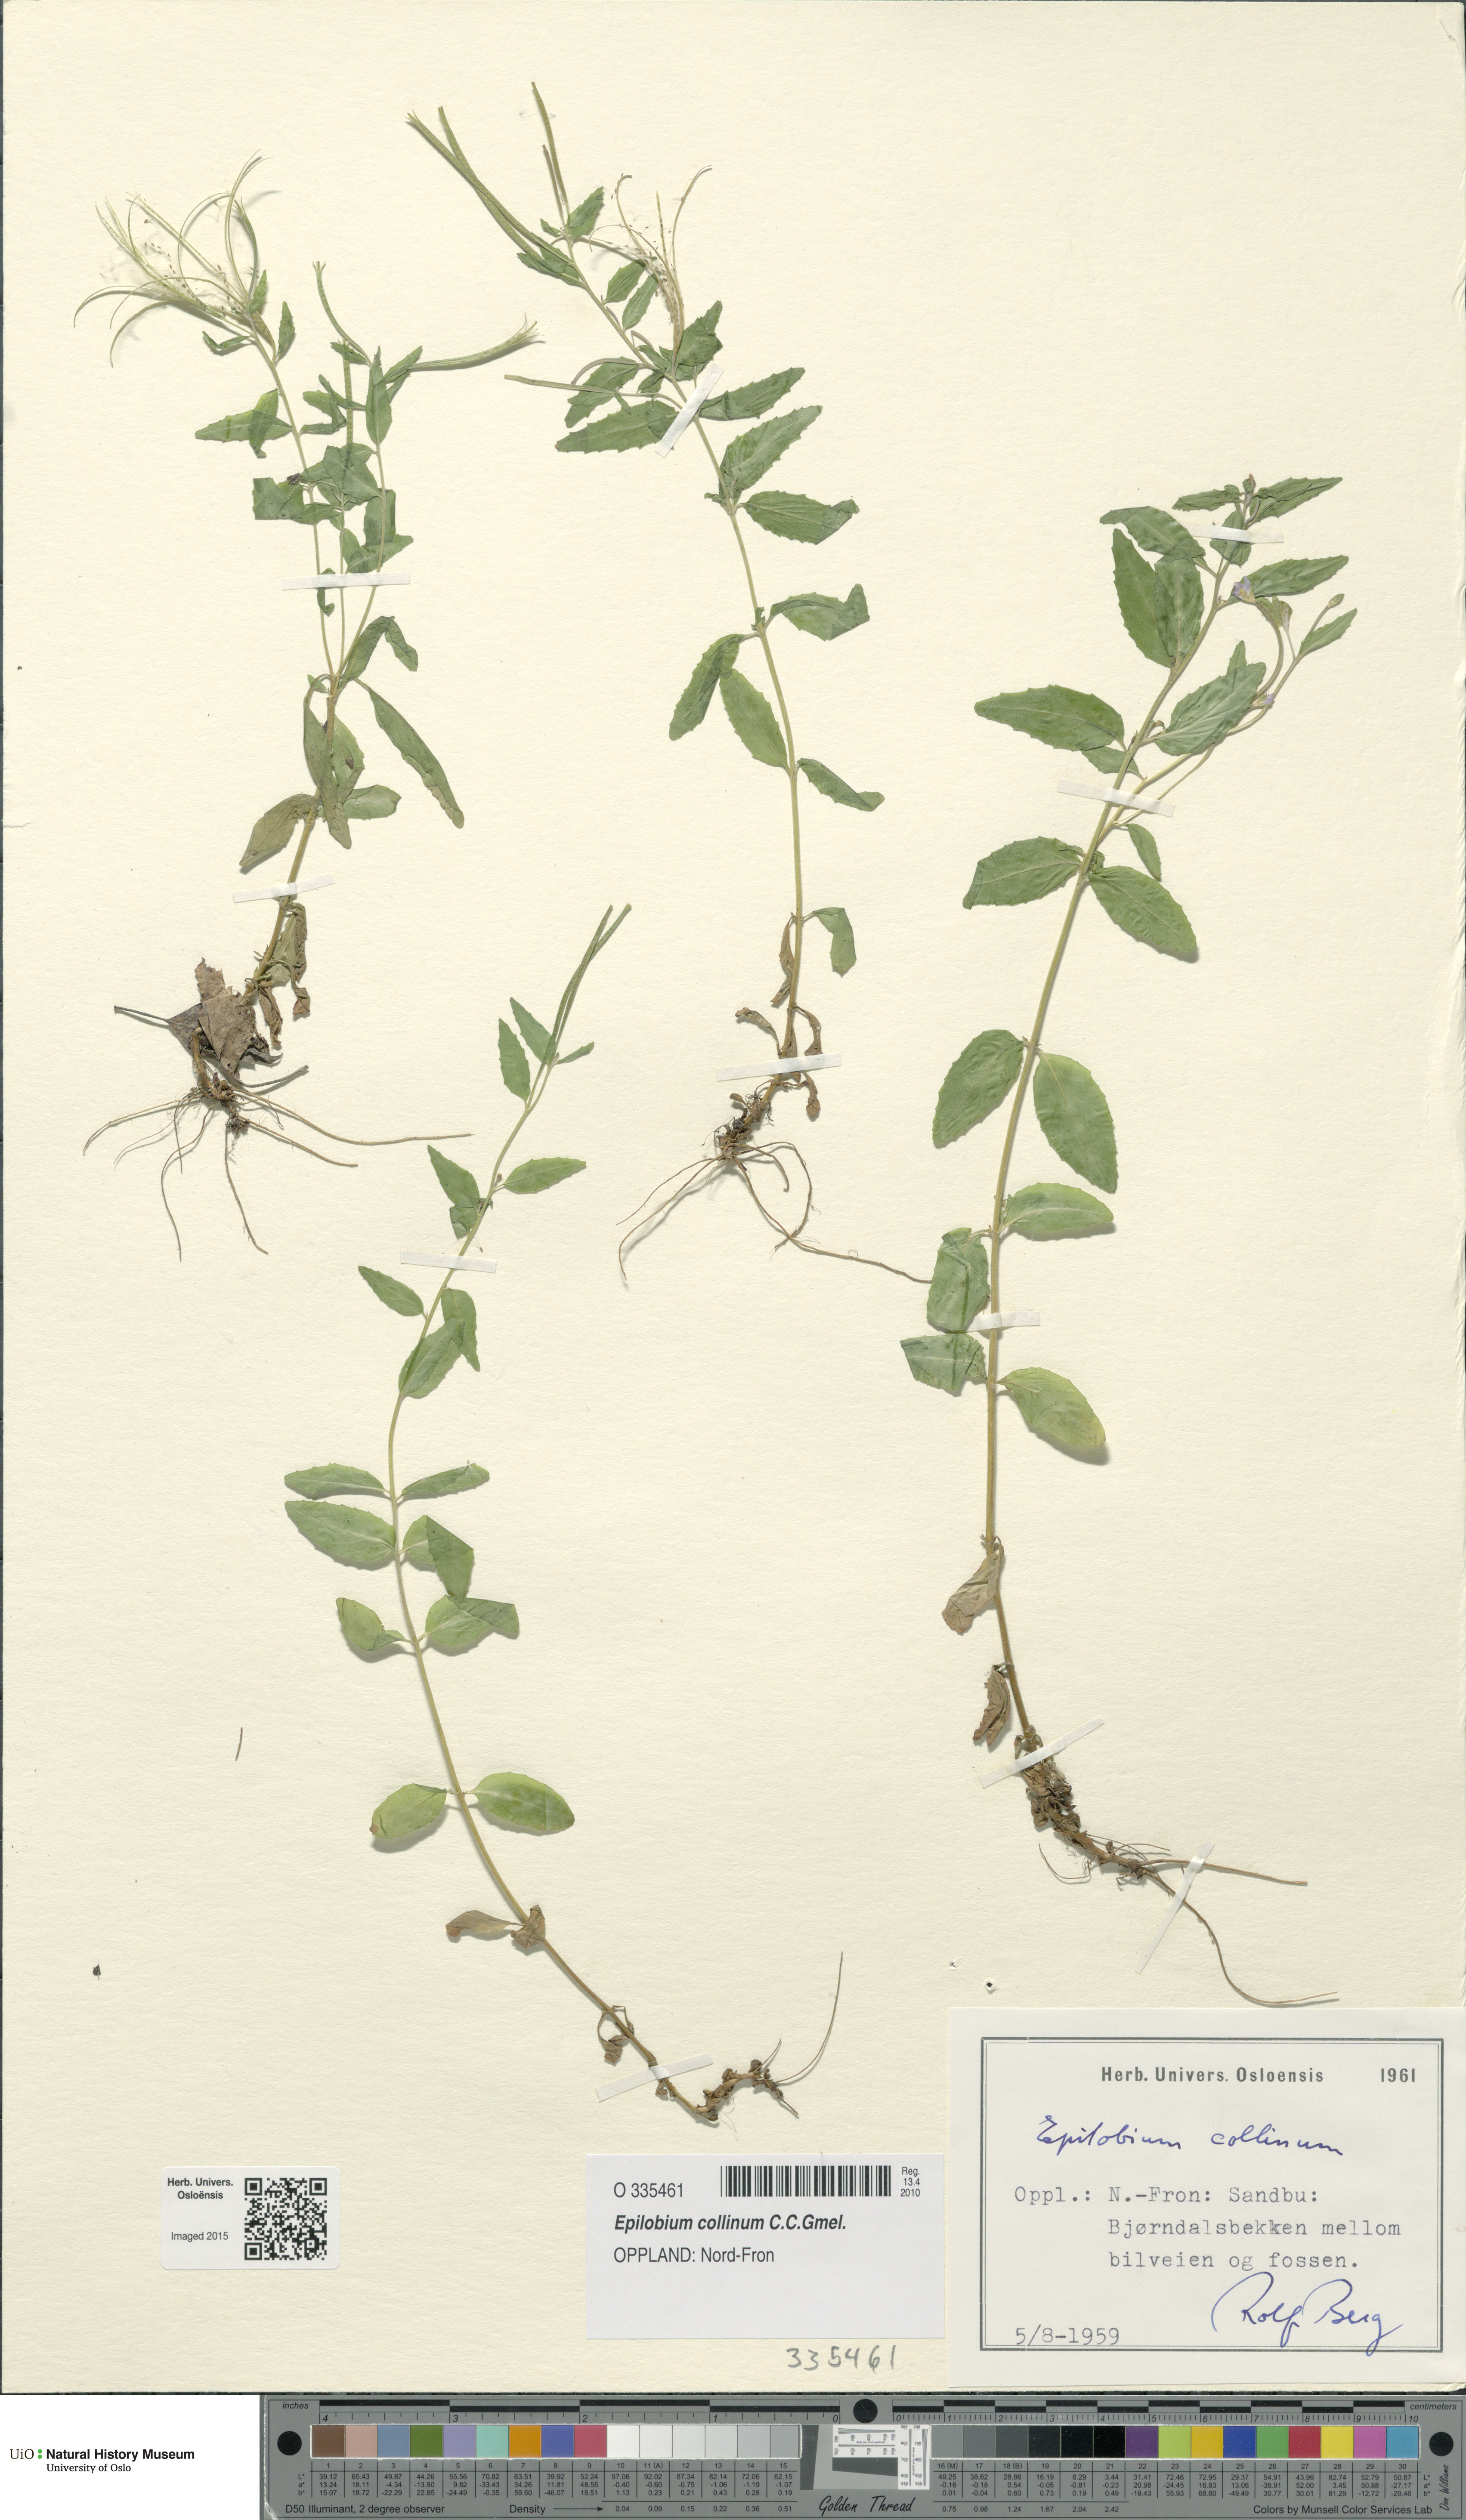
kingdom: Plantae
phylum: Tracheophyta
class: Magnoliopsida
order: Myrtales
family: Onagraceae
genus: Epilobium
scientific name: Epilobium collinum
